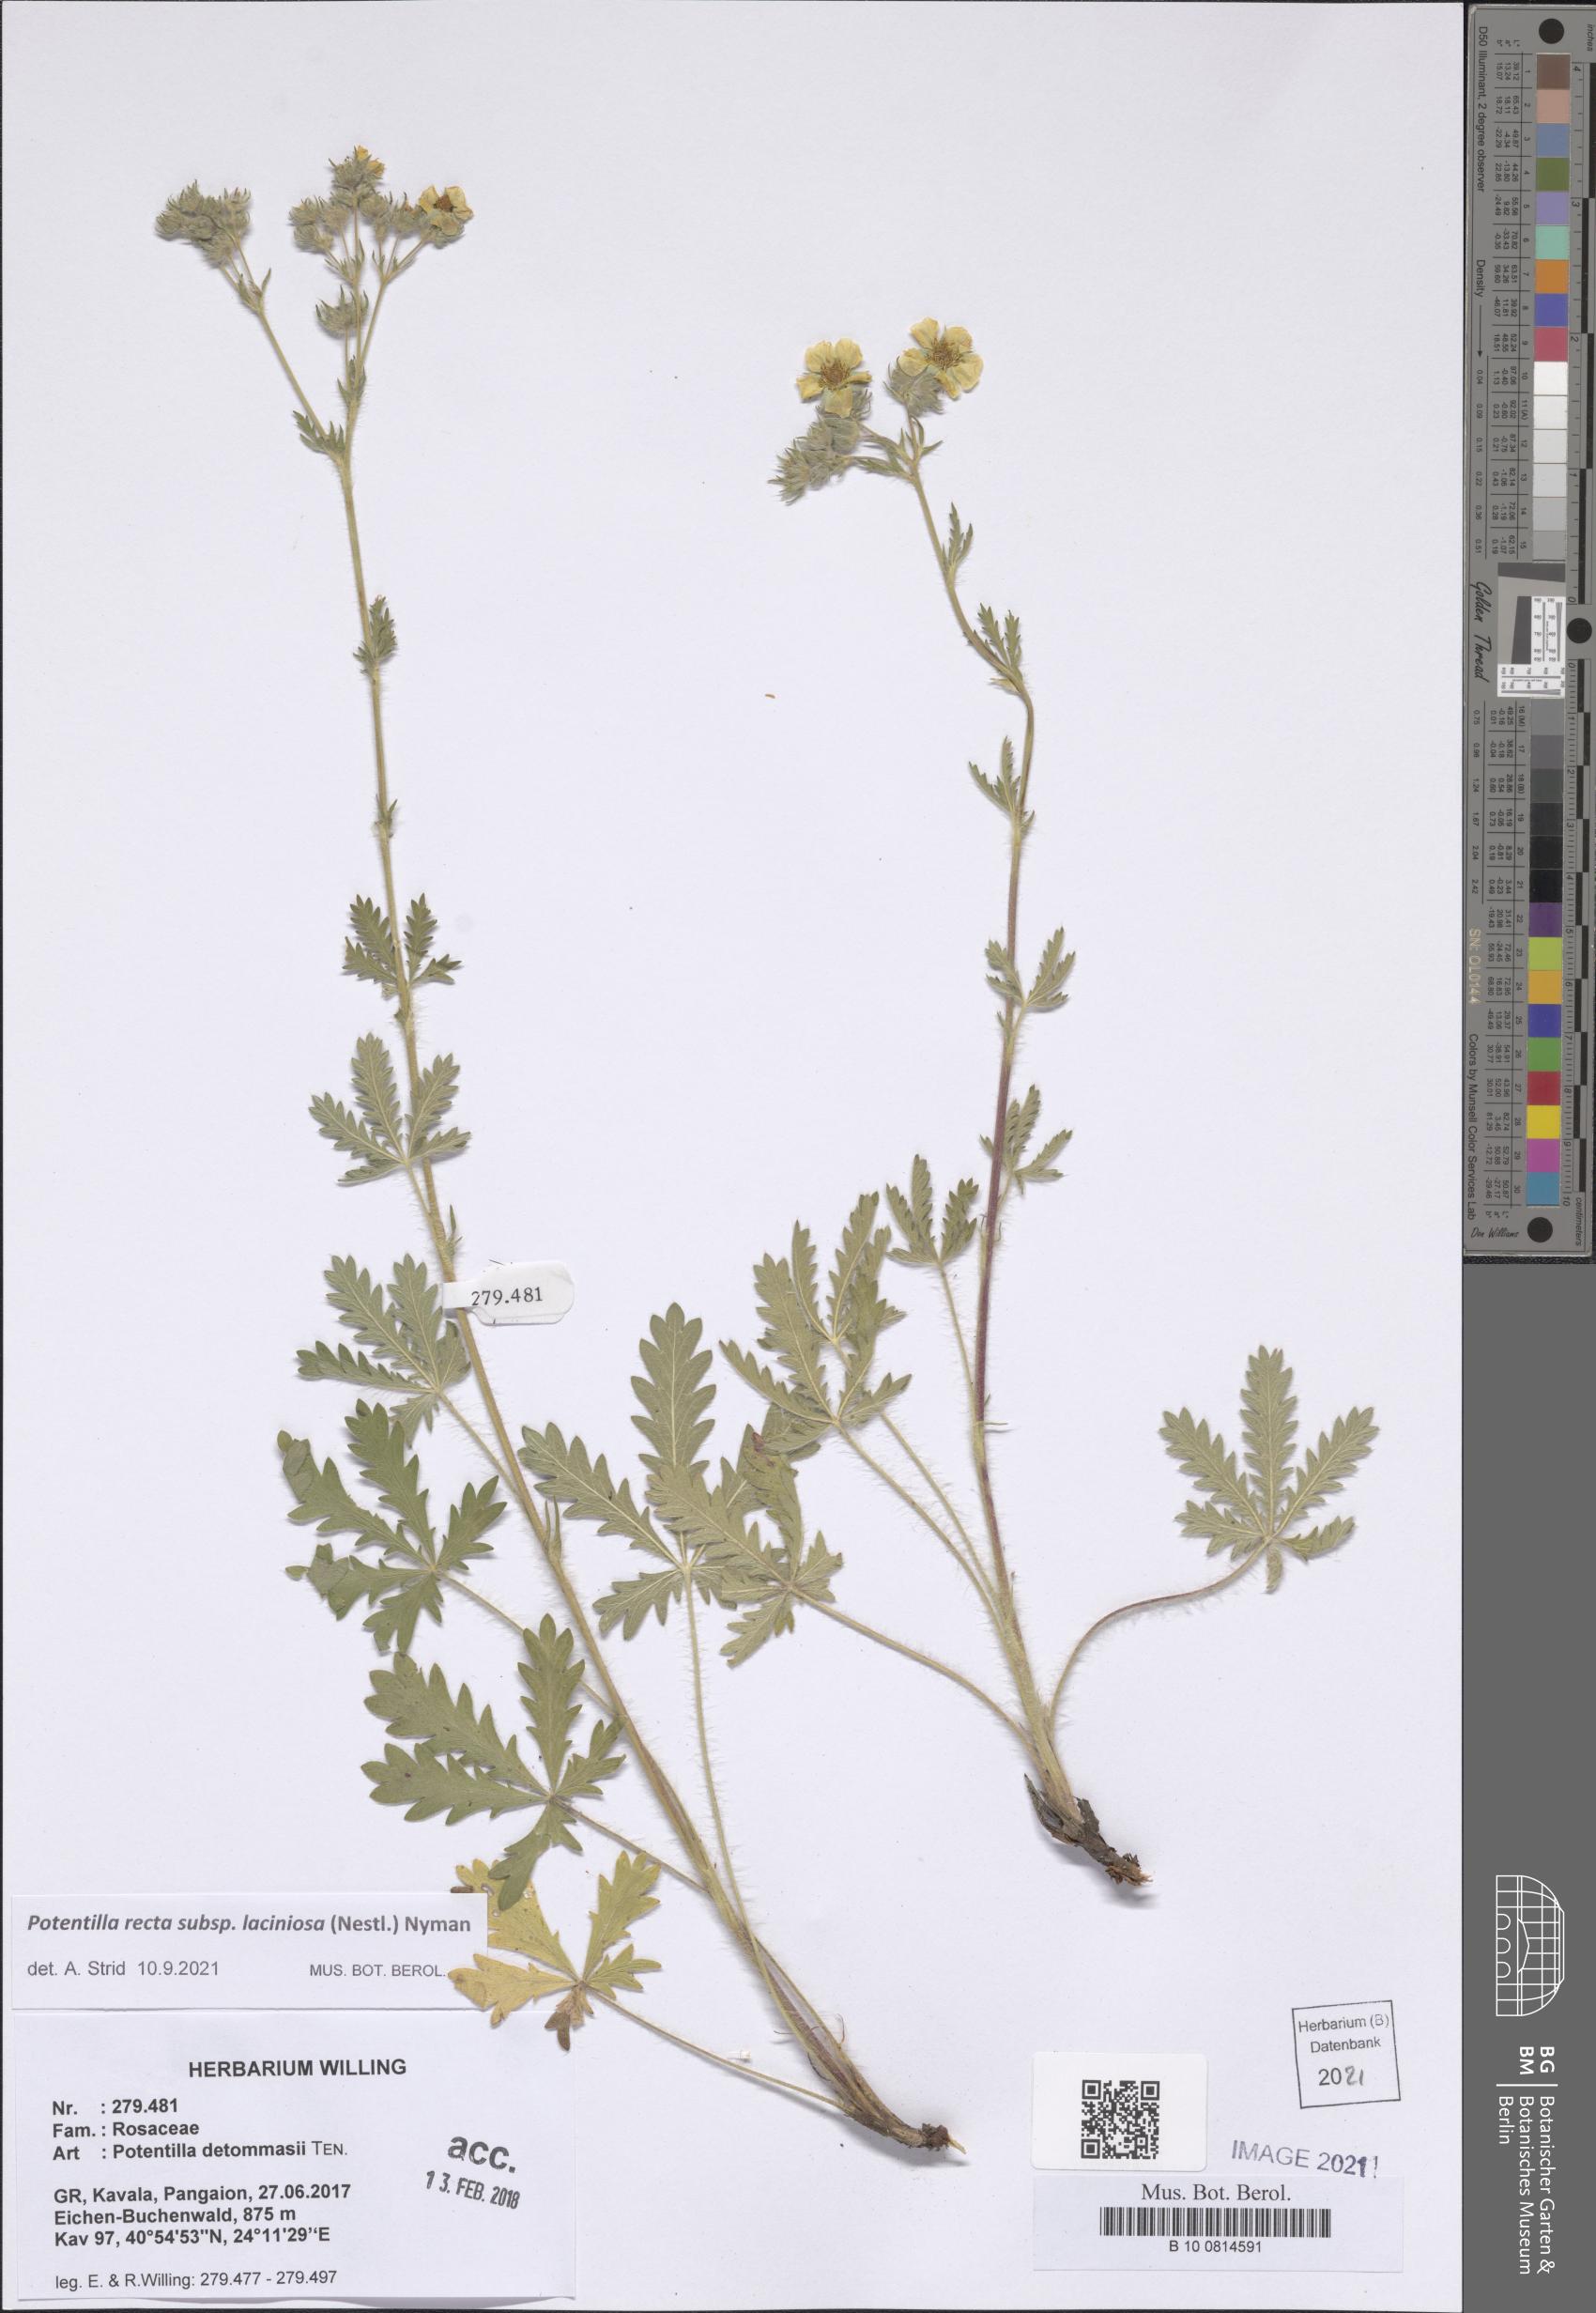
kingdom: Plantae
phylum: Tracheophyta
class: Magnoliopsida
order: Rosales
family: Rosaceae
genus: Potentilla
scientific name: Potentilla recta
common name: Sulphur cinquefoil
